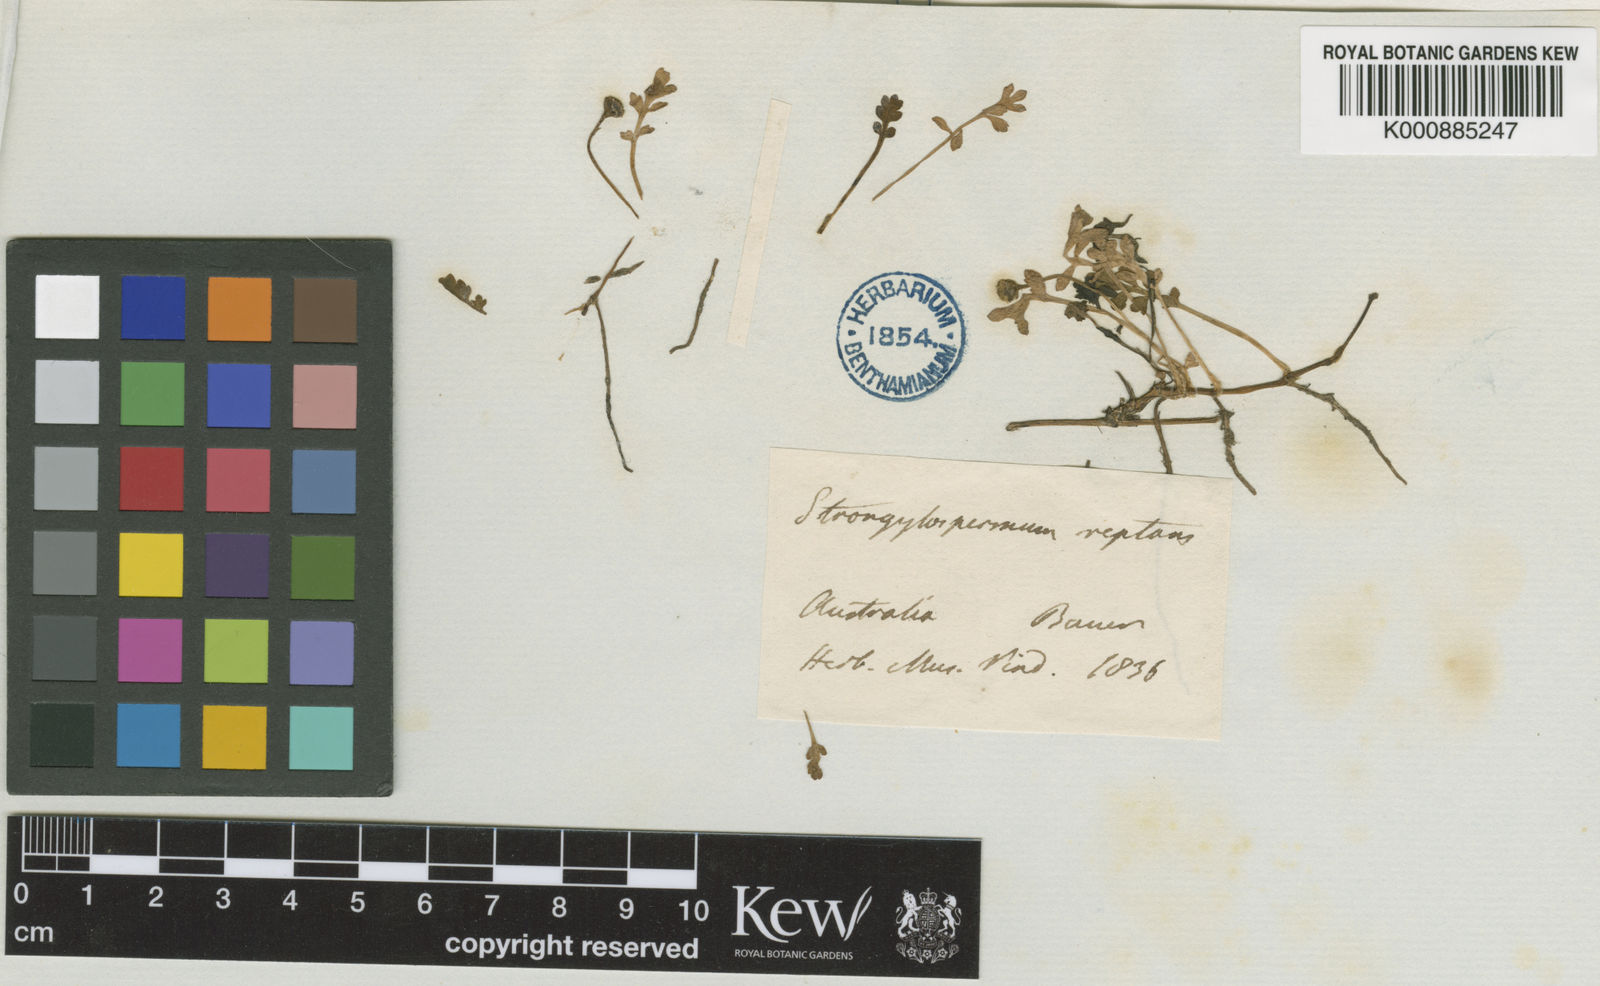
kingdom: Plantae
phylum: Tracheophyta
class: Magnoliopsida
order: Asterales
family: Asteraceae
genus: Leptinella
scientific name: Leptinella
